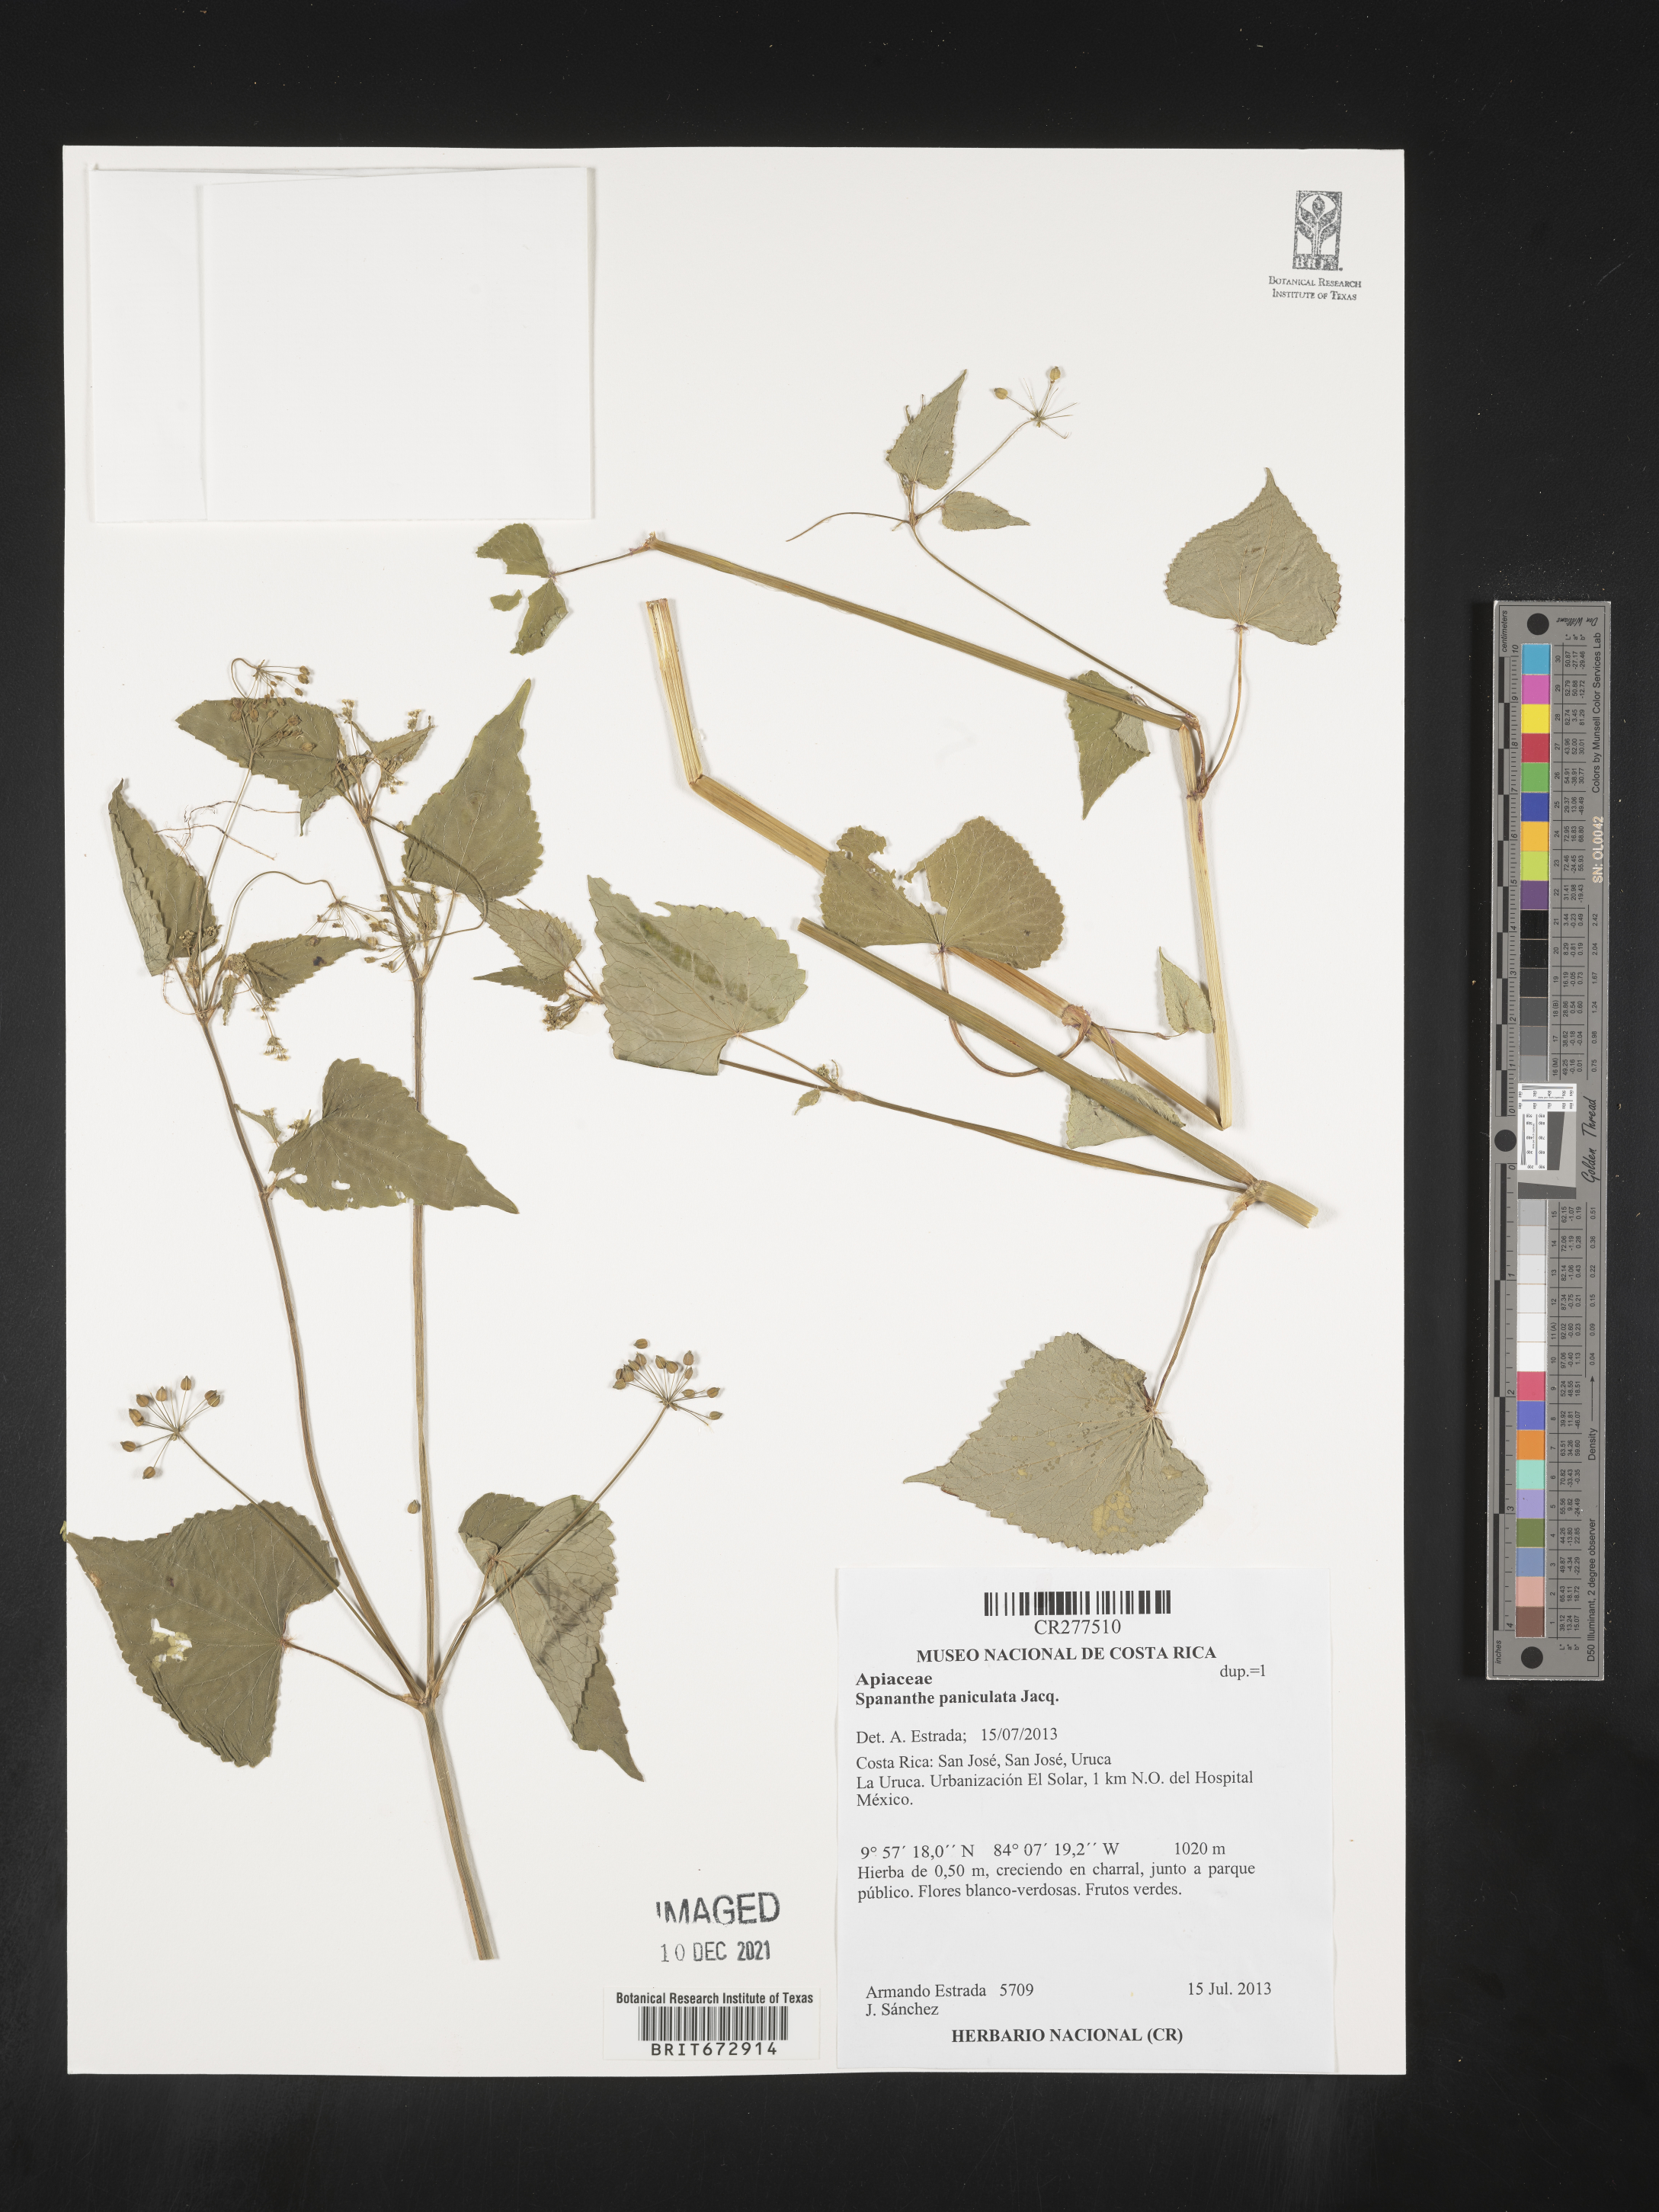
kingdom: Plantae
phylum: Tracheophyta
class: Magnoliopsida
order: Apiales
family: Apiaceae
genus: Spananthe
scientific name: Spananthe
